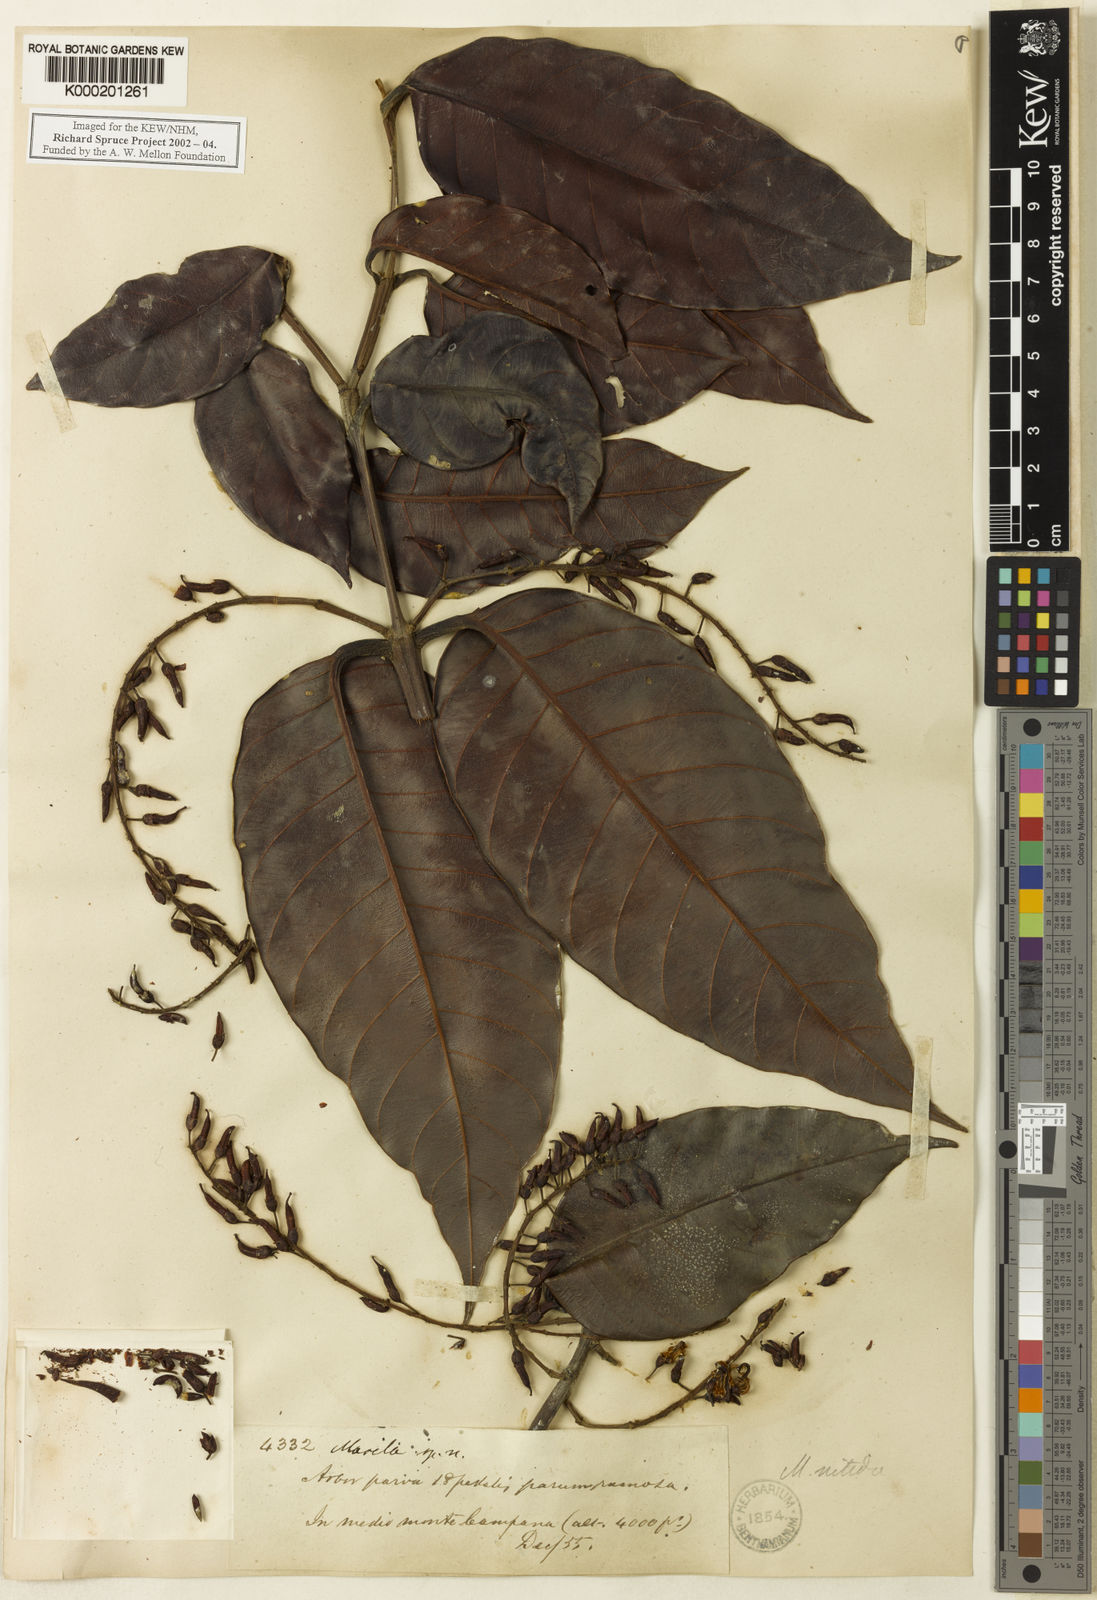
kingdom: Plantae
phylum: Tracheophyta
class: Magnoliopsida
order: Malpighiales
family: Calophyllaceae
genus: Marila
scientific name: Marila nitida
